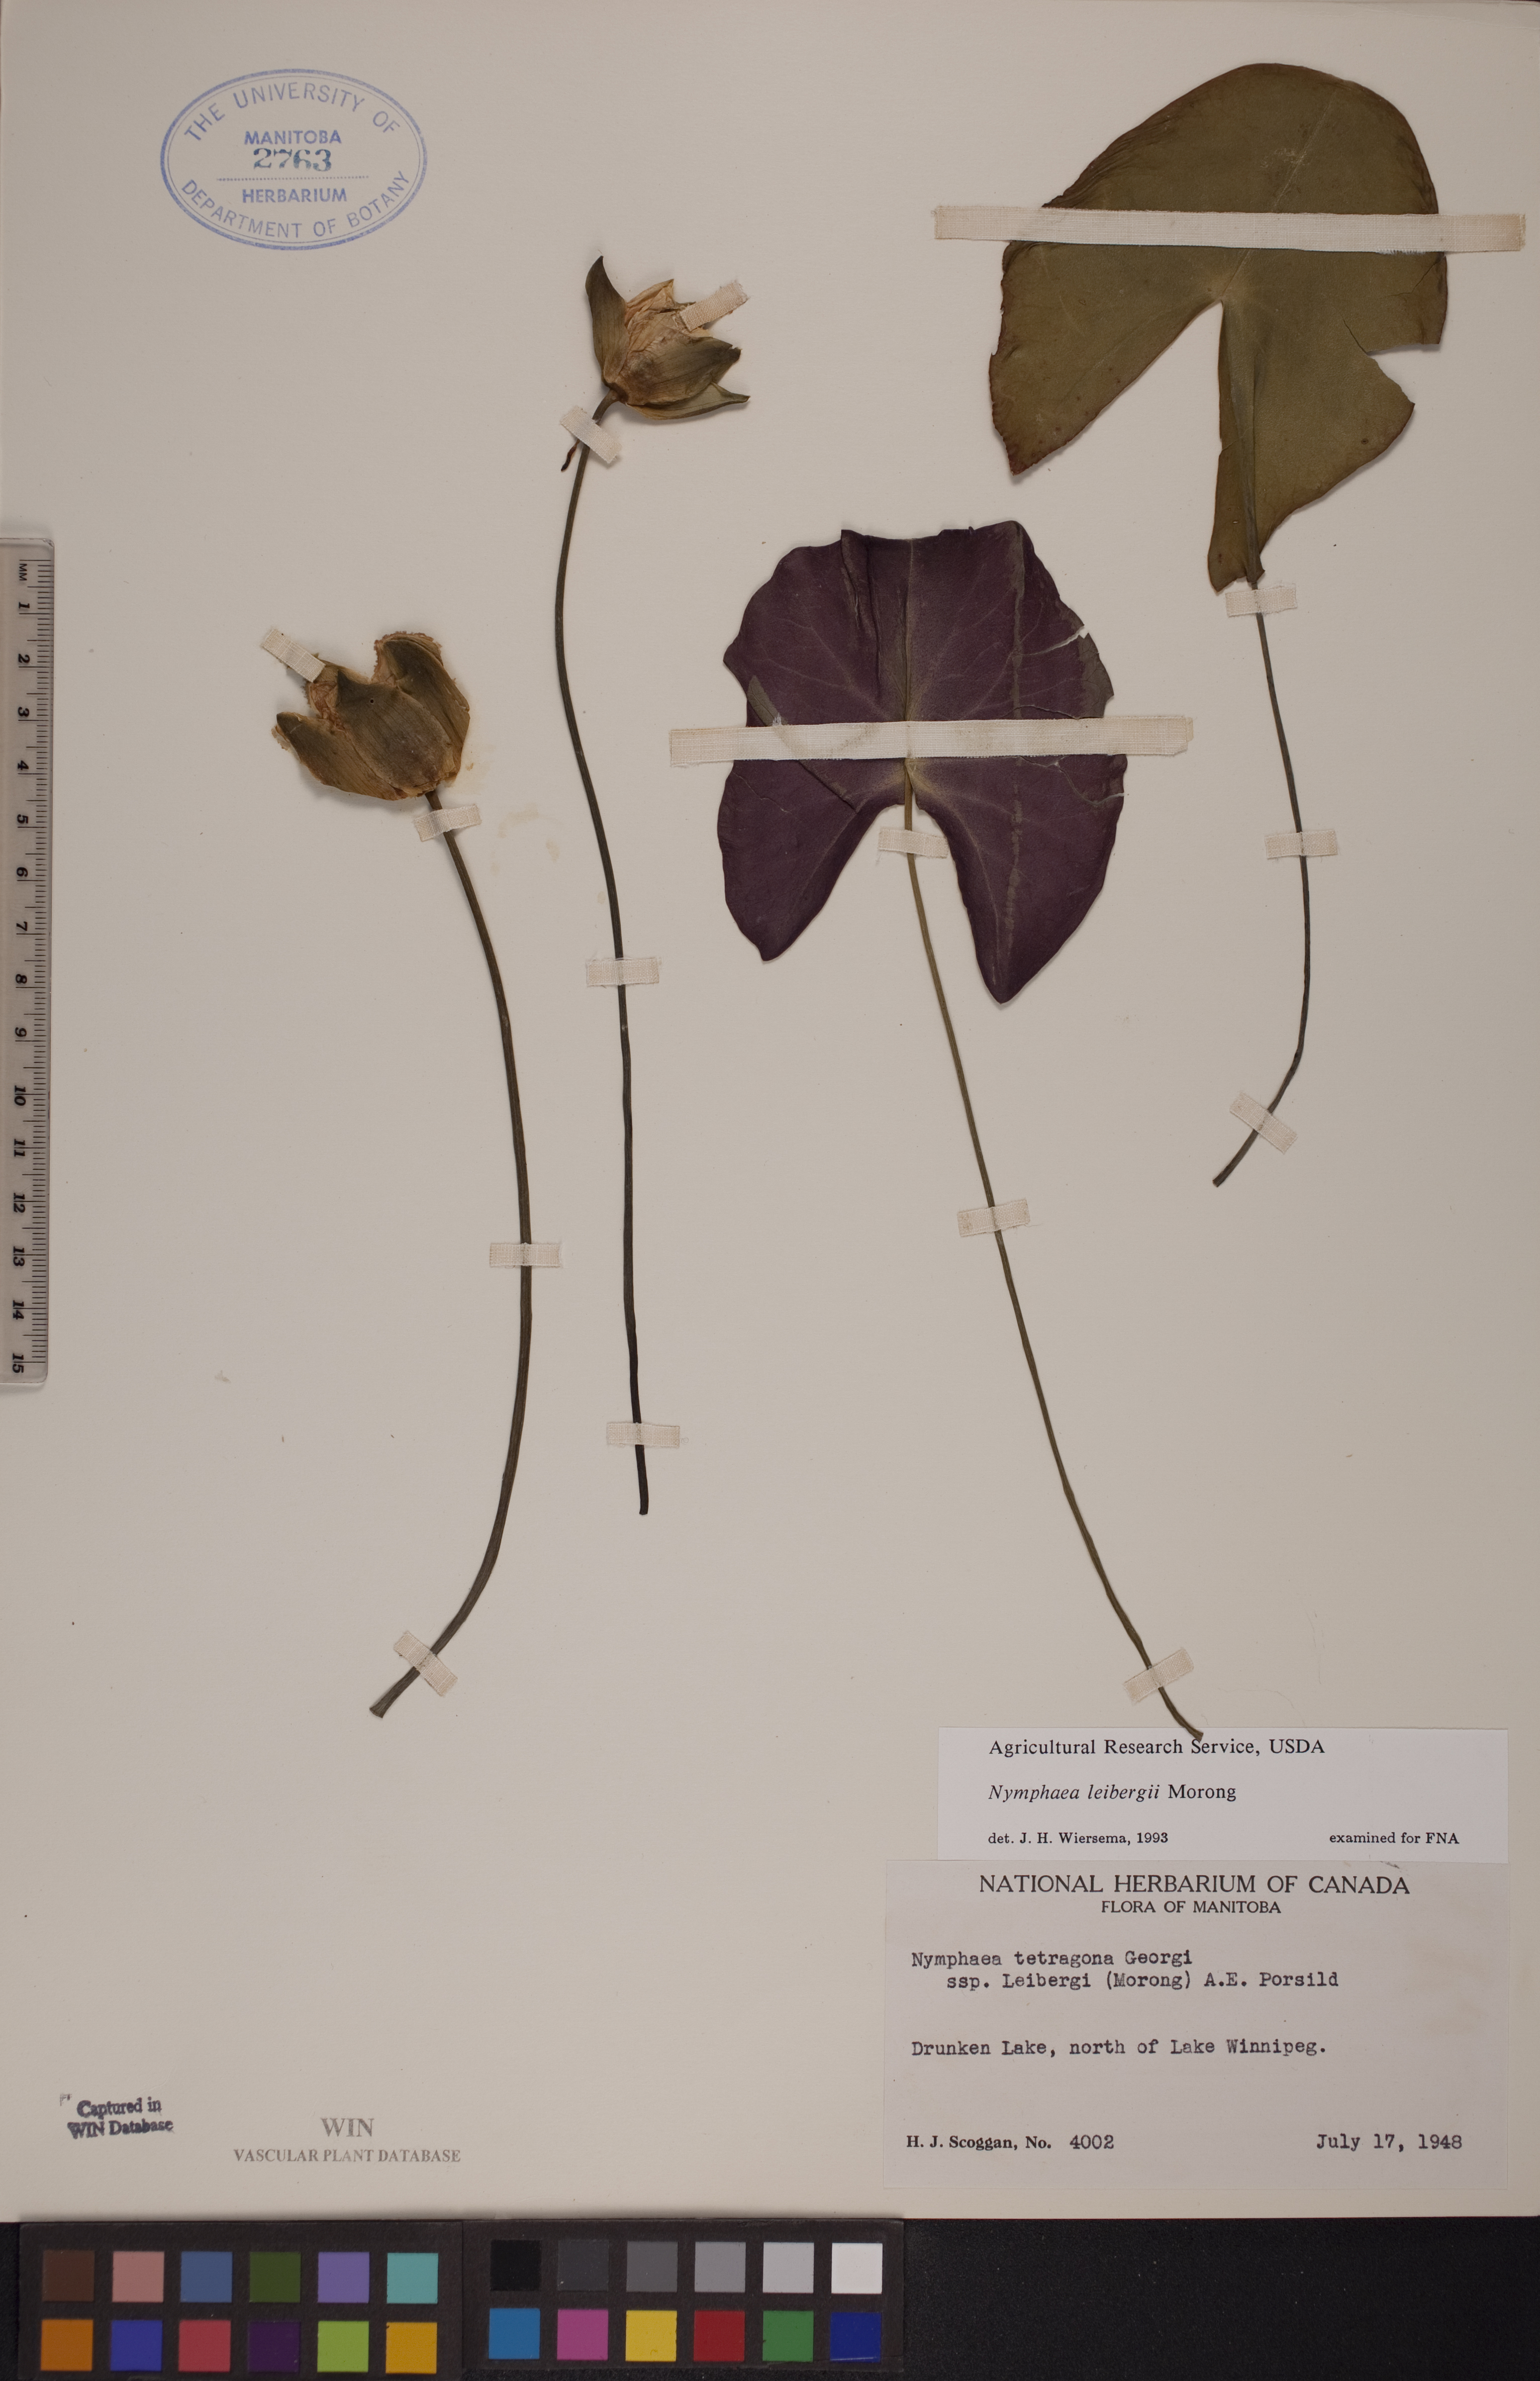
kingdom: Plantae
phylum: Tracheophyta
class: Magnoliopsida
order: Nymphaeales
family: Nymphaeaceae
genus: Nymphaea
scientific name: Nymphaea leibergii
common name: Dwarf water-lily
